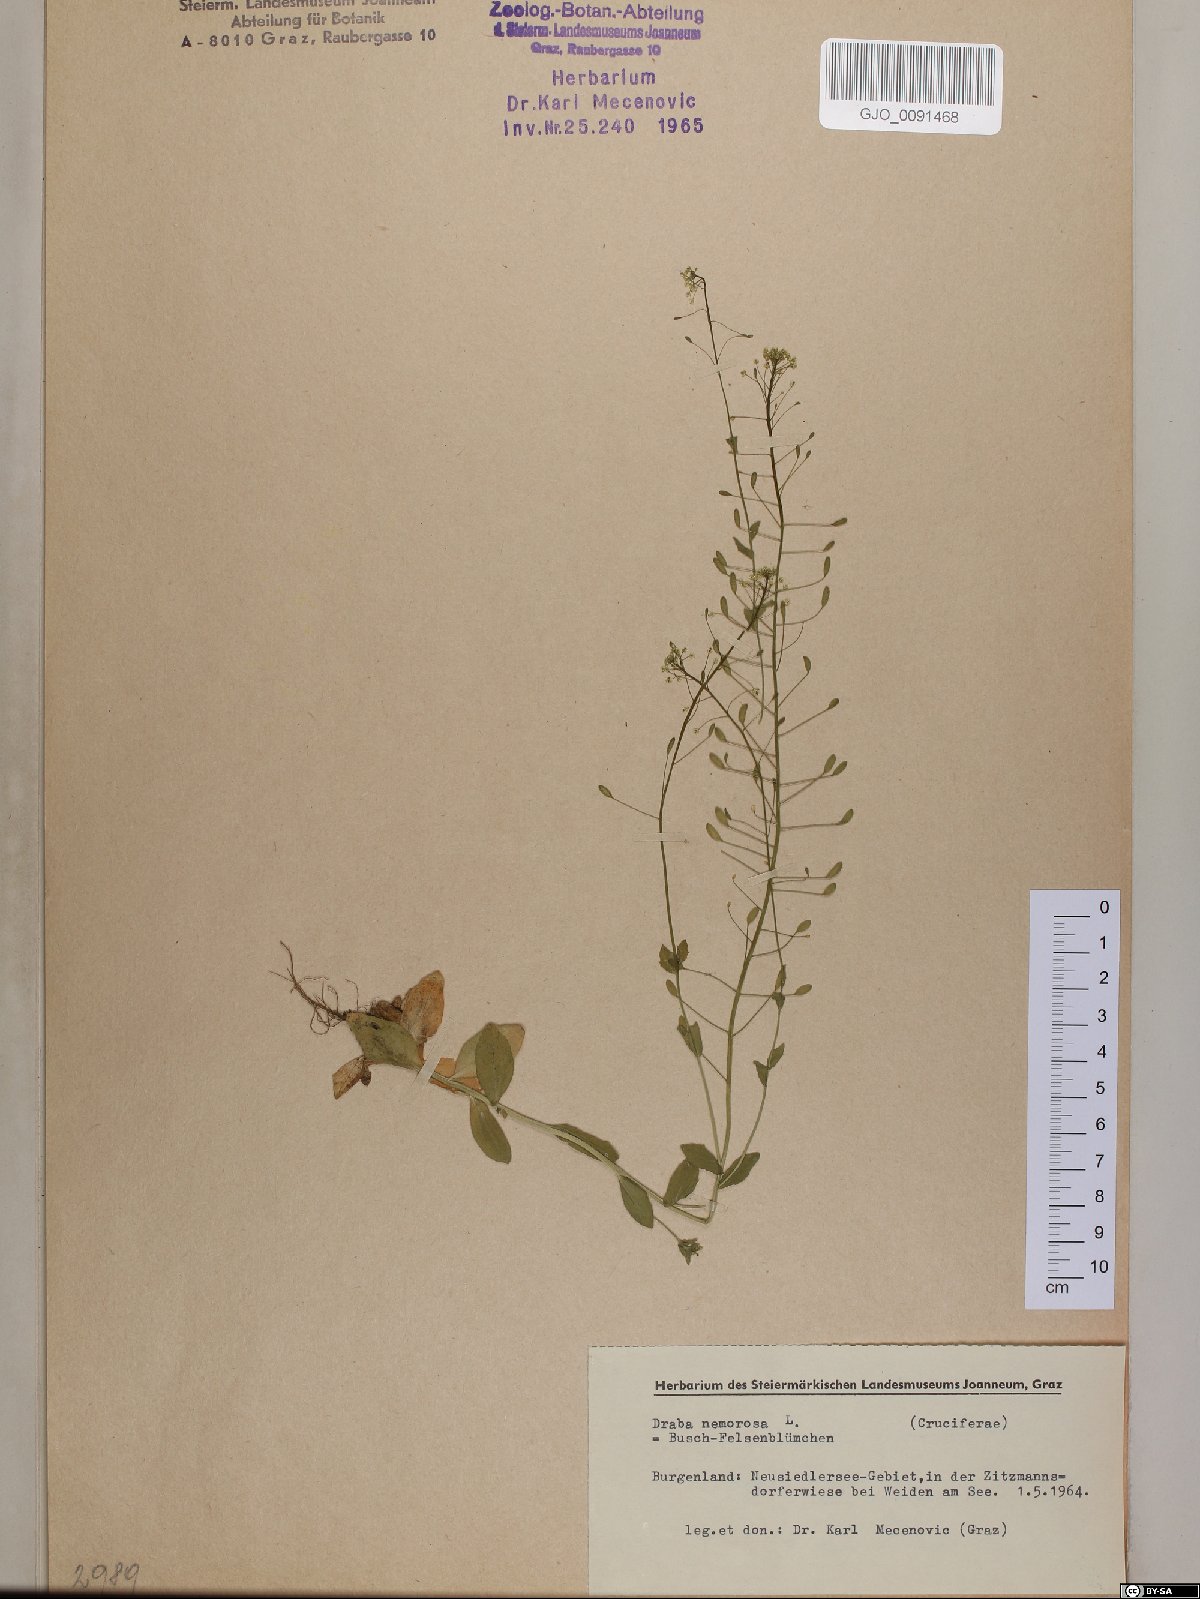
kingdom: Plantae
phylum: Tracheophyta
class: Magnoliopsida
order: Brassicales
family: Brassicaceae
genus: Draba
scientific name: Draba nemorosa
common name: Wood whitlow-grass
